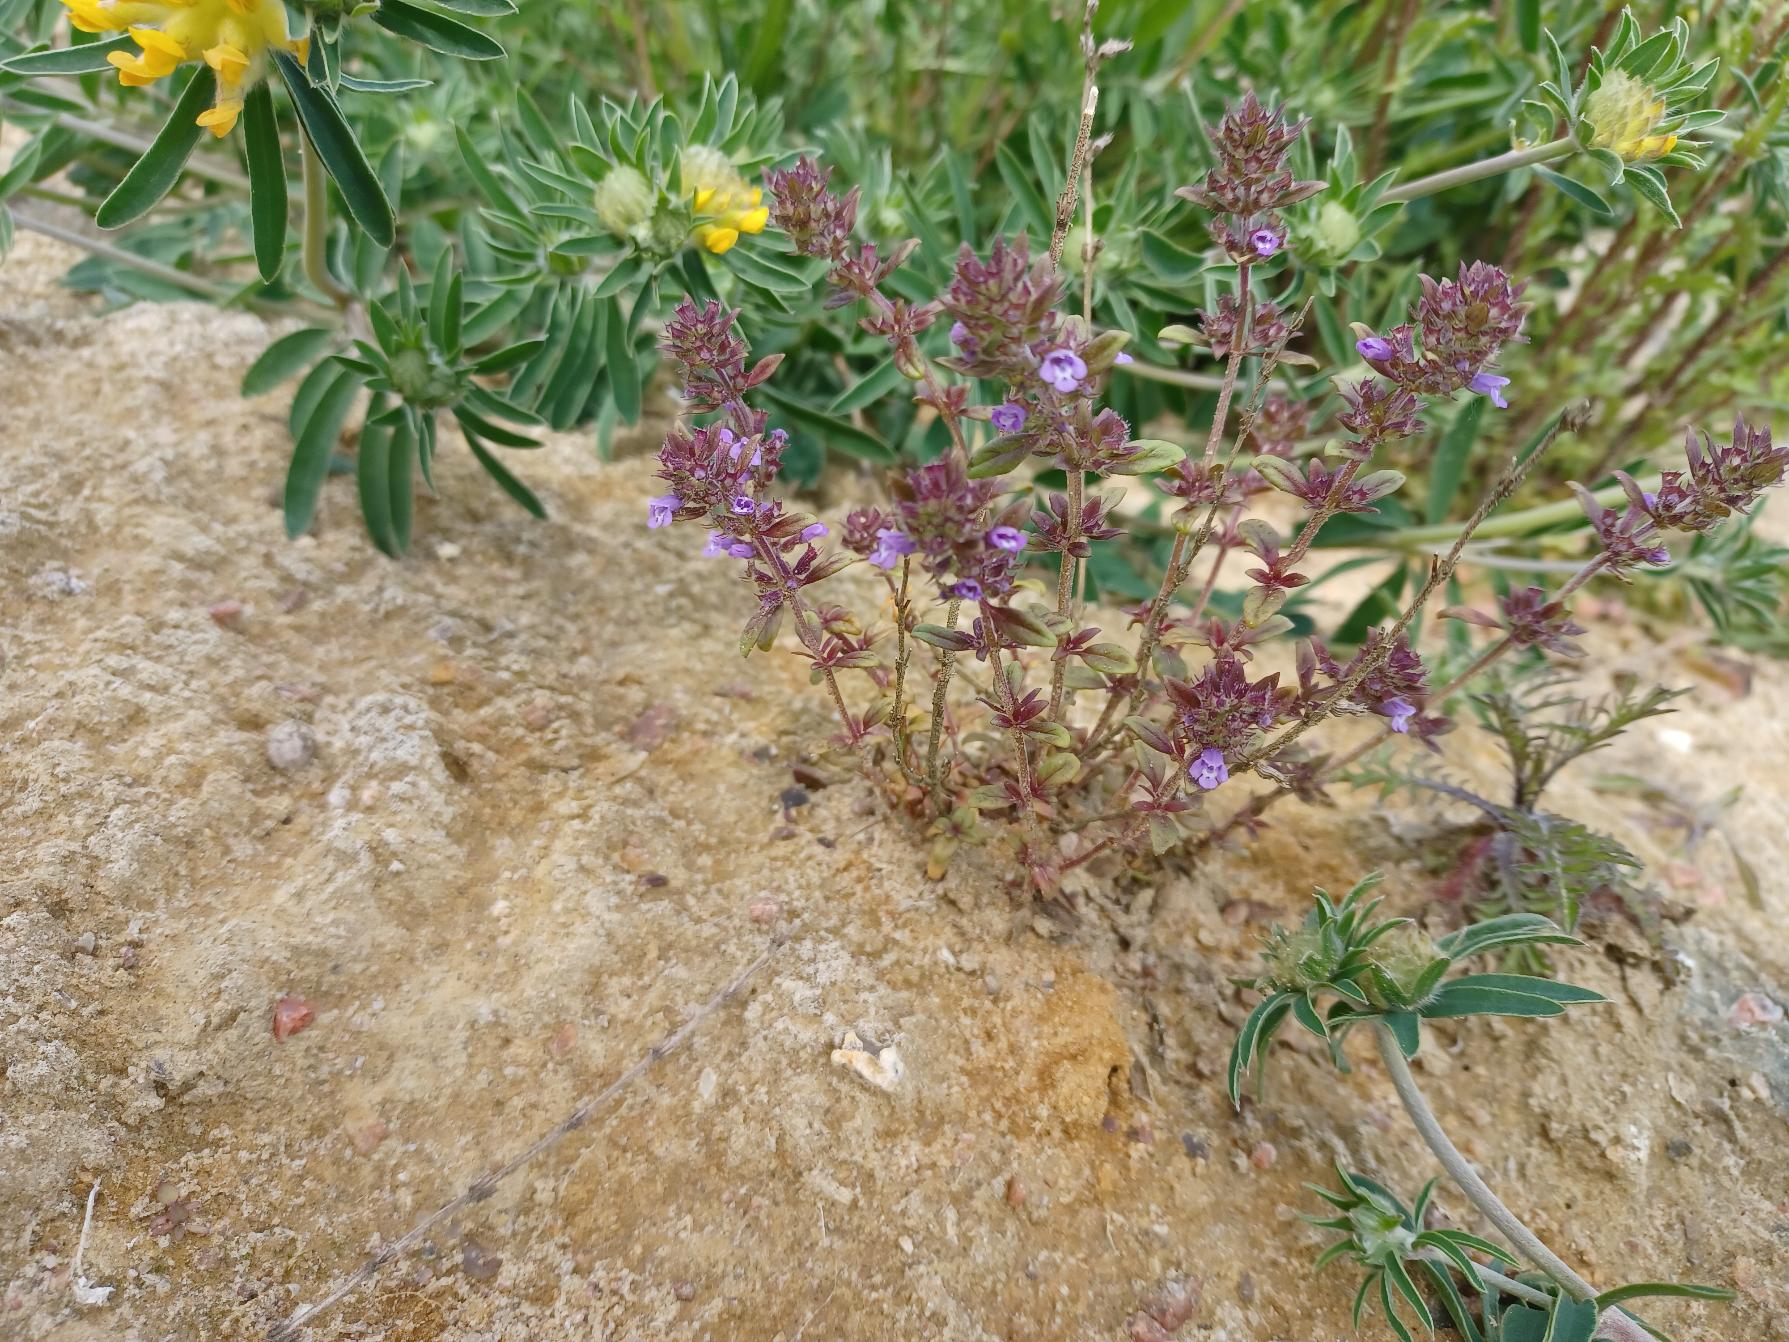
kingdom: Plantae
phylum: Tracheophyta
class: Magnoliopsida
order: Lamiales
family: Lamiaceae
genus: Clinopodium
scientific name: Clinopodium acinos
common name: Voldtimian
